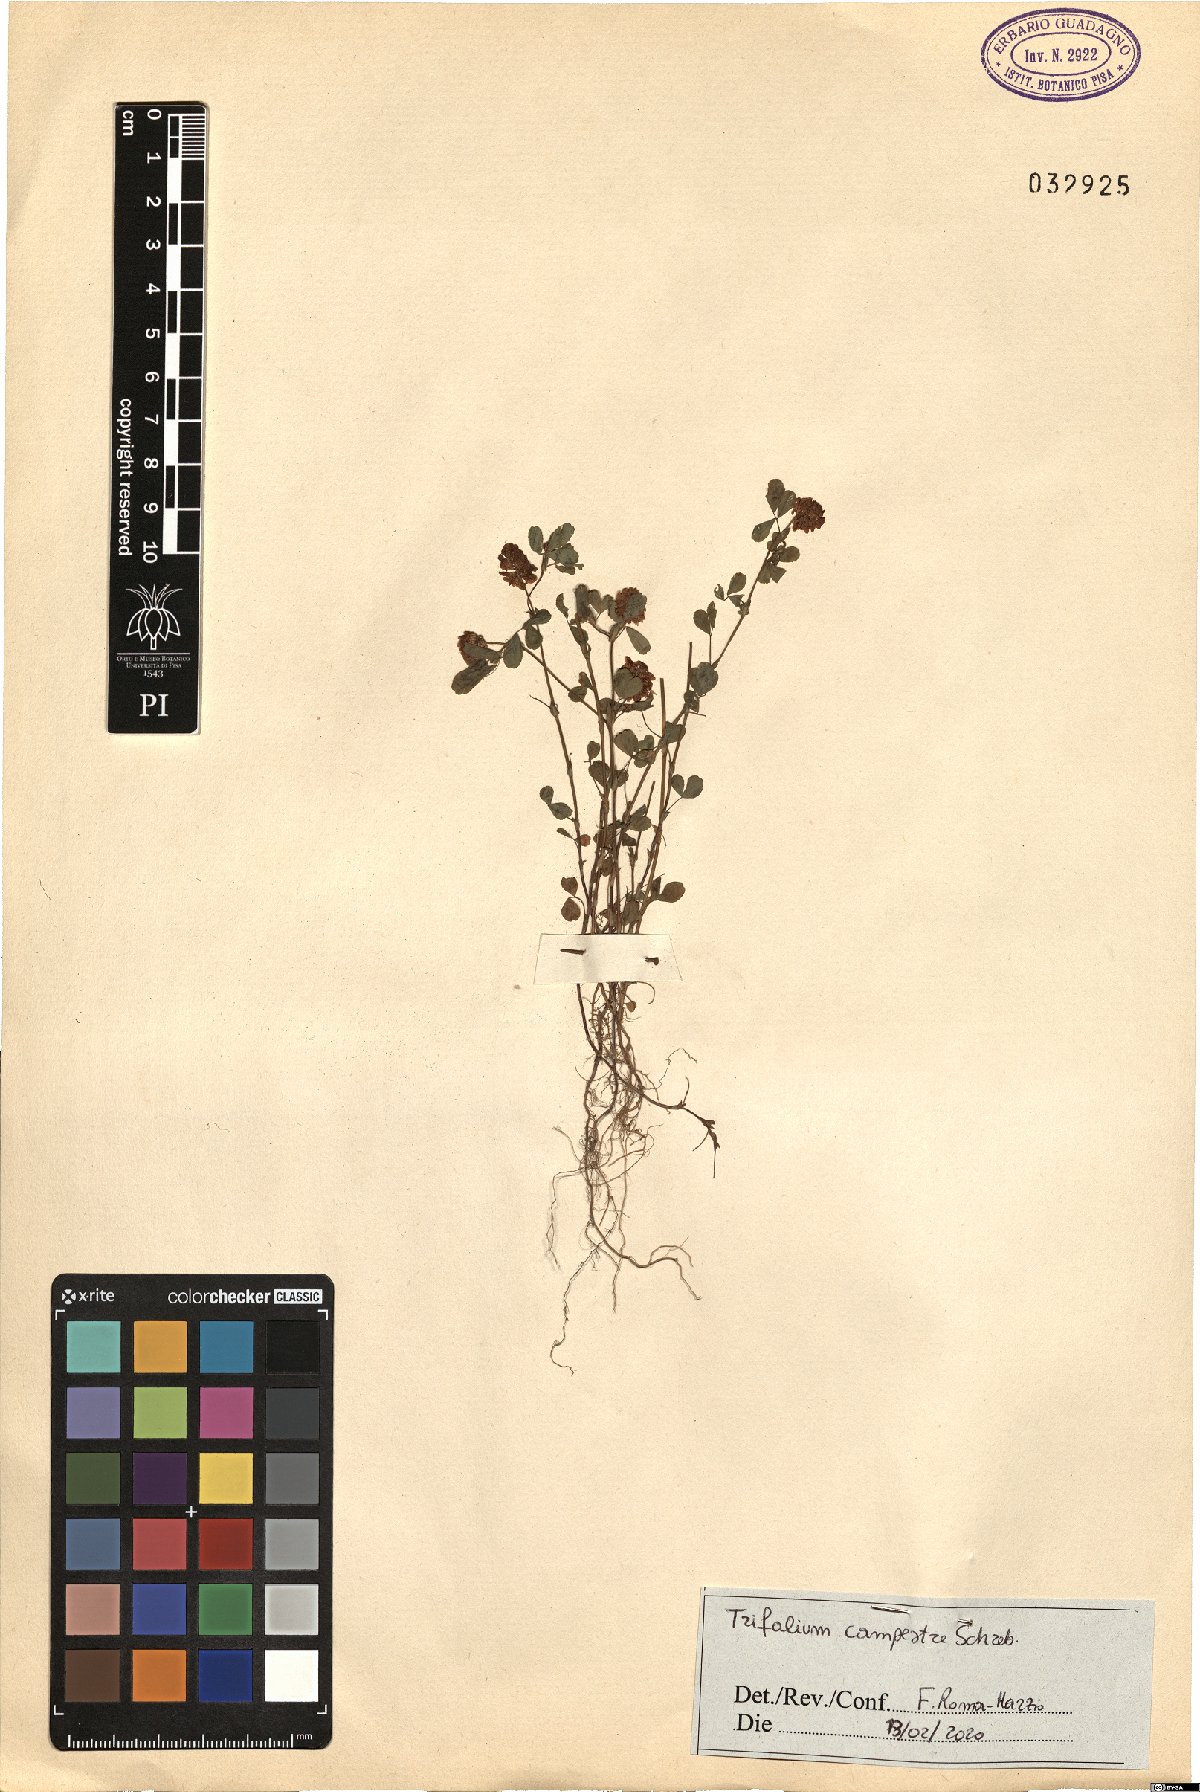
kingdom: Plantae
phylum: Tracheophyta
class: Magnoliopsida
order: Fabales
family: Fabaceae
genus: Trifolium
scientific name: Trifolium campestre
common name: Field clover
